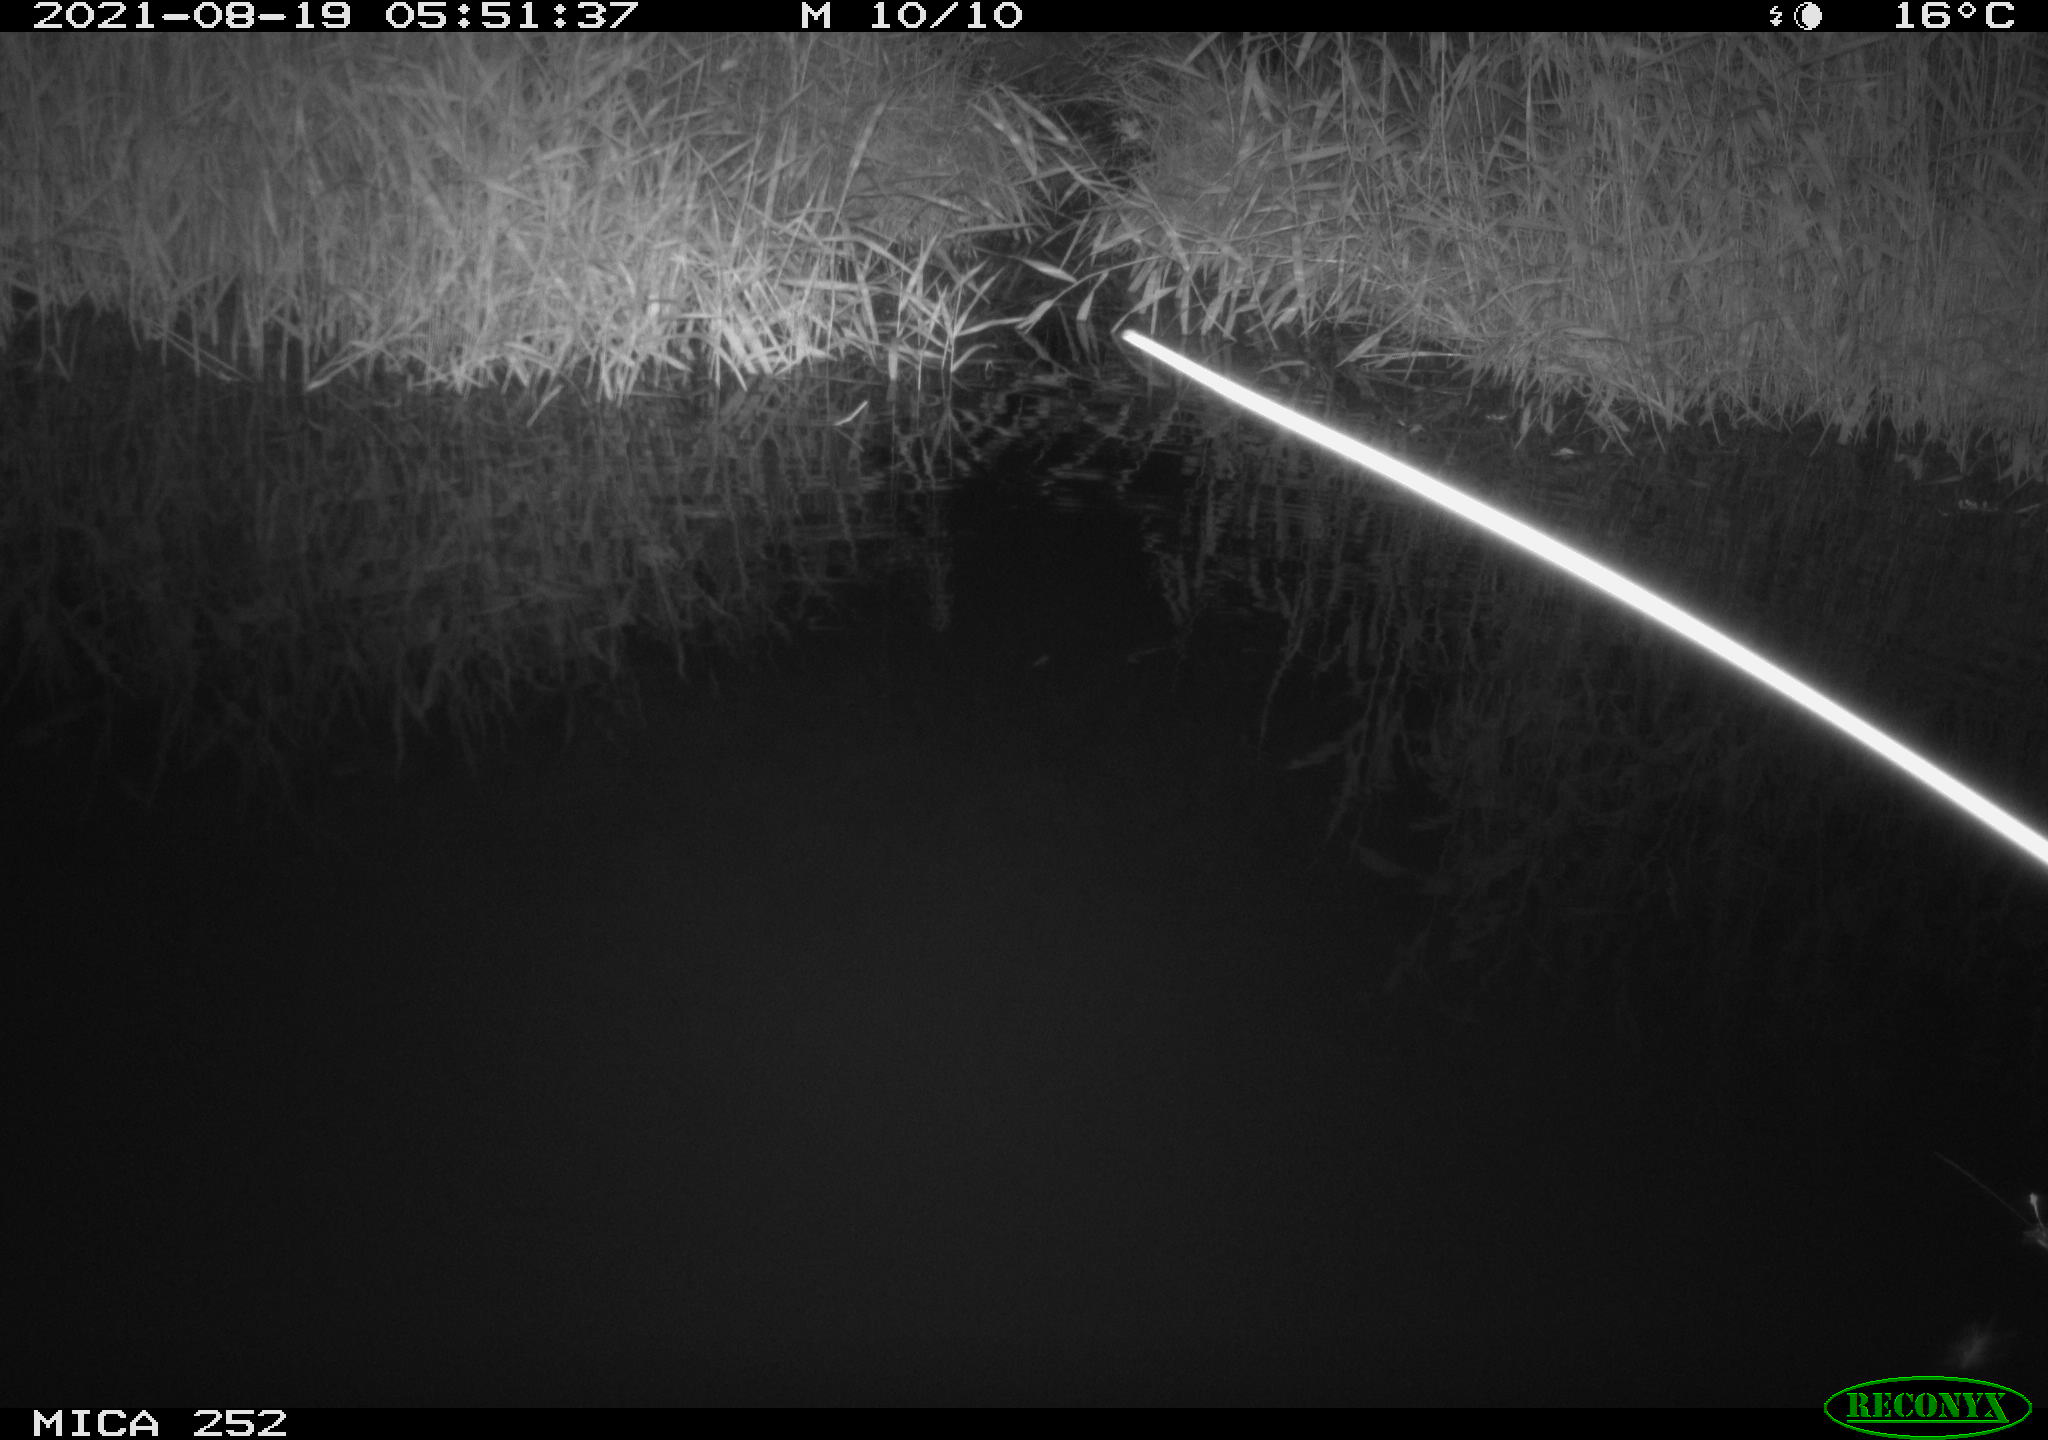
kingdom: Animalia
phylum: Chordata
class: Aves
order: Anseriformes
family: Anatidae
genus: Anas
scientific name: Anas platyrhynchos
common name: Mallard
